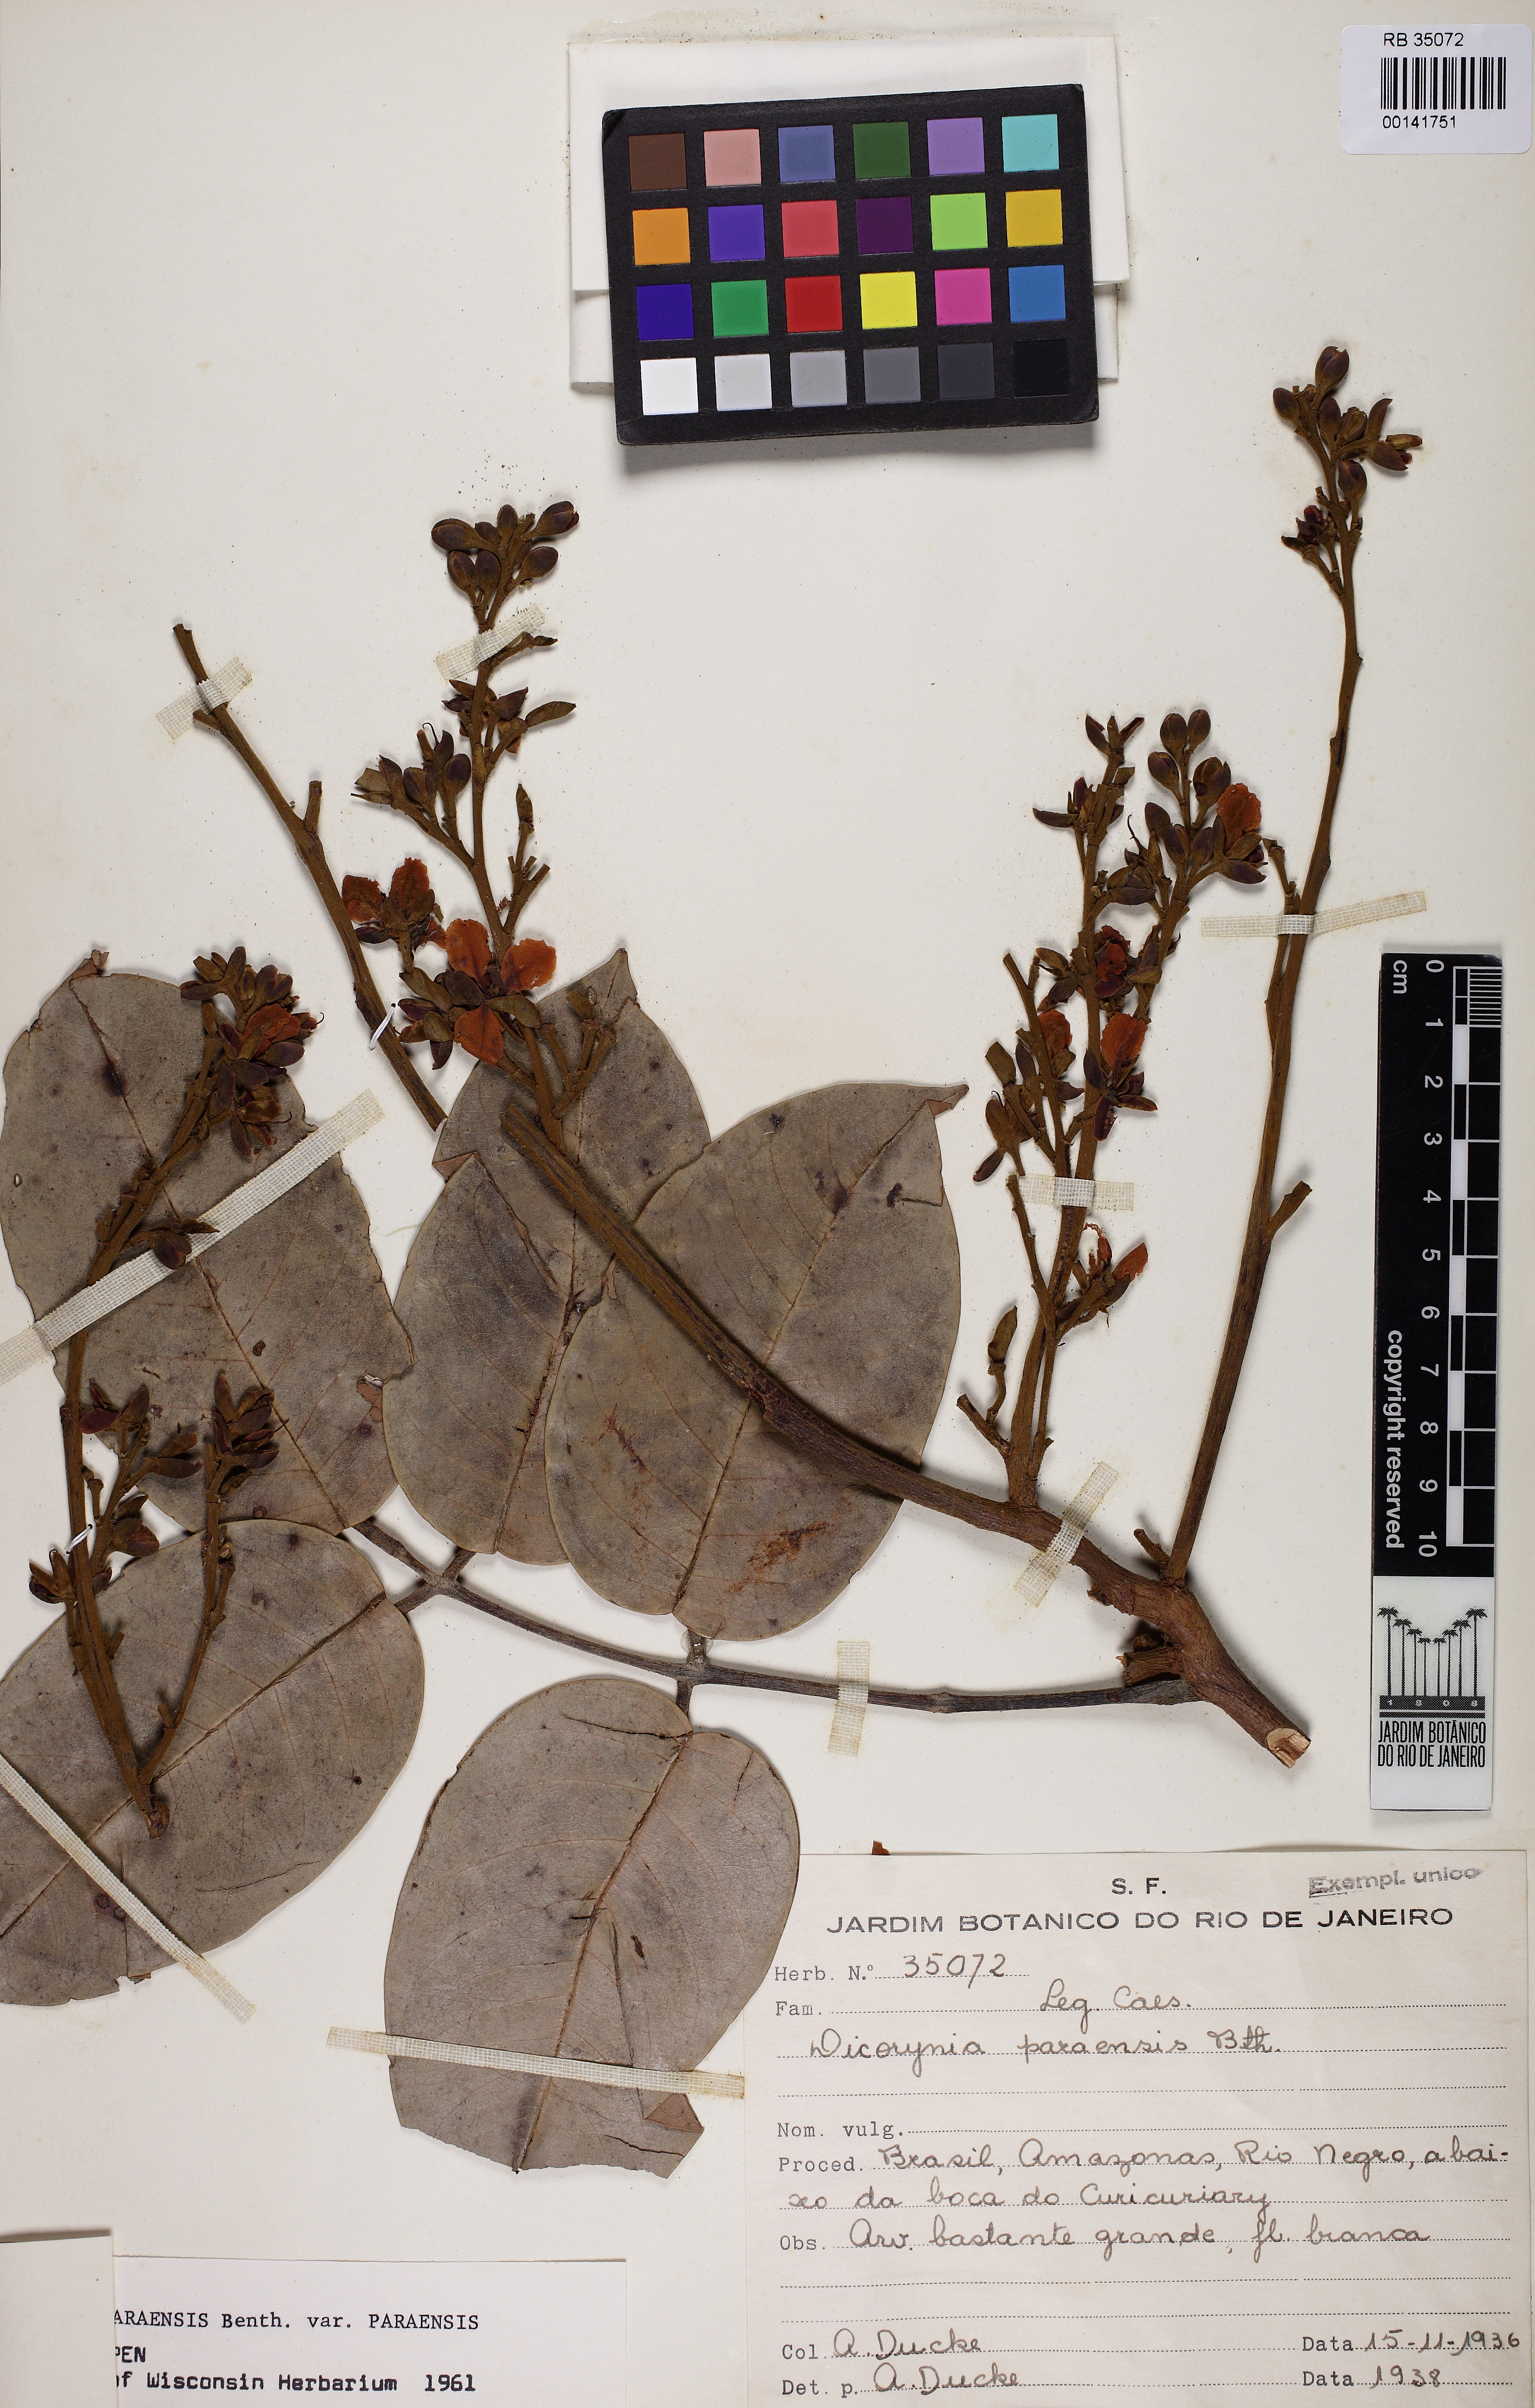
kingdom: Plantae
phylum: Tracheophyta
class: Magnoliopsida
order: Fabales
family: Fabaceae
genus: Dicorynia
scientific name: Dicorynia paraensis
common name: Angelique
